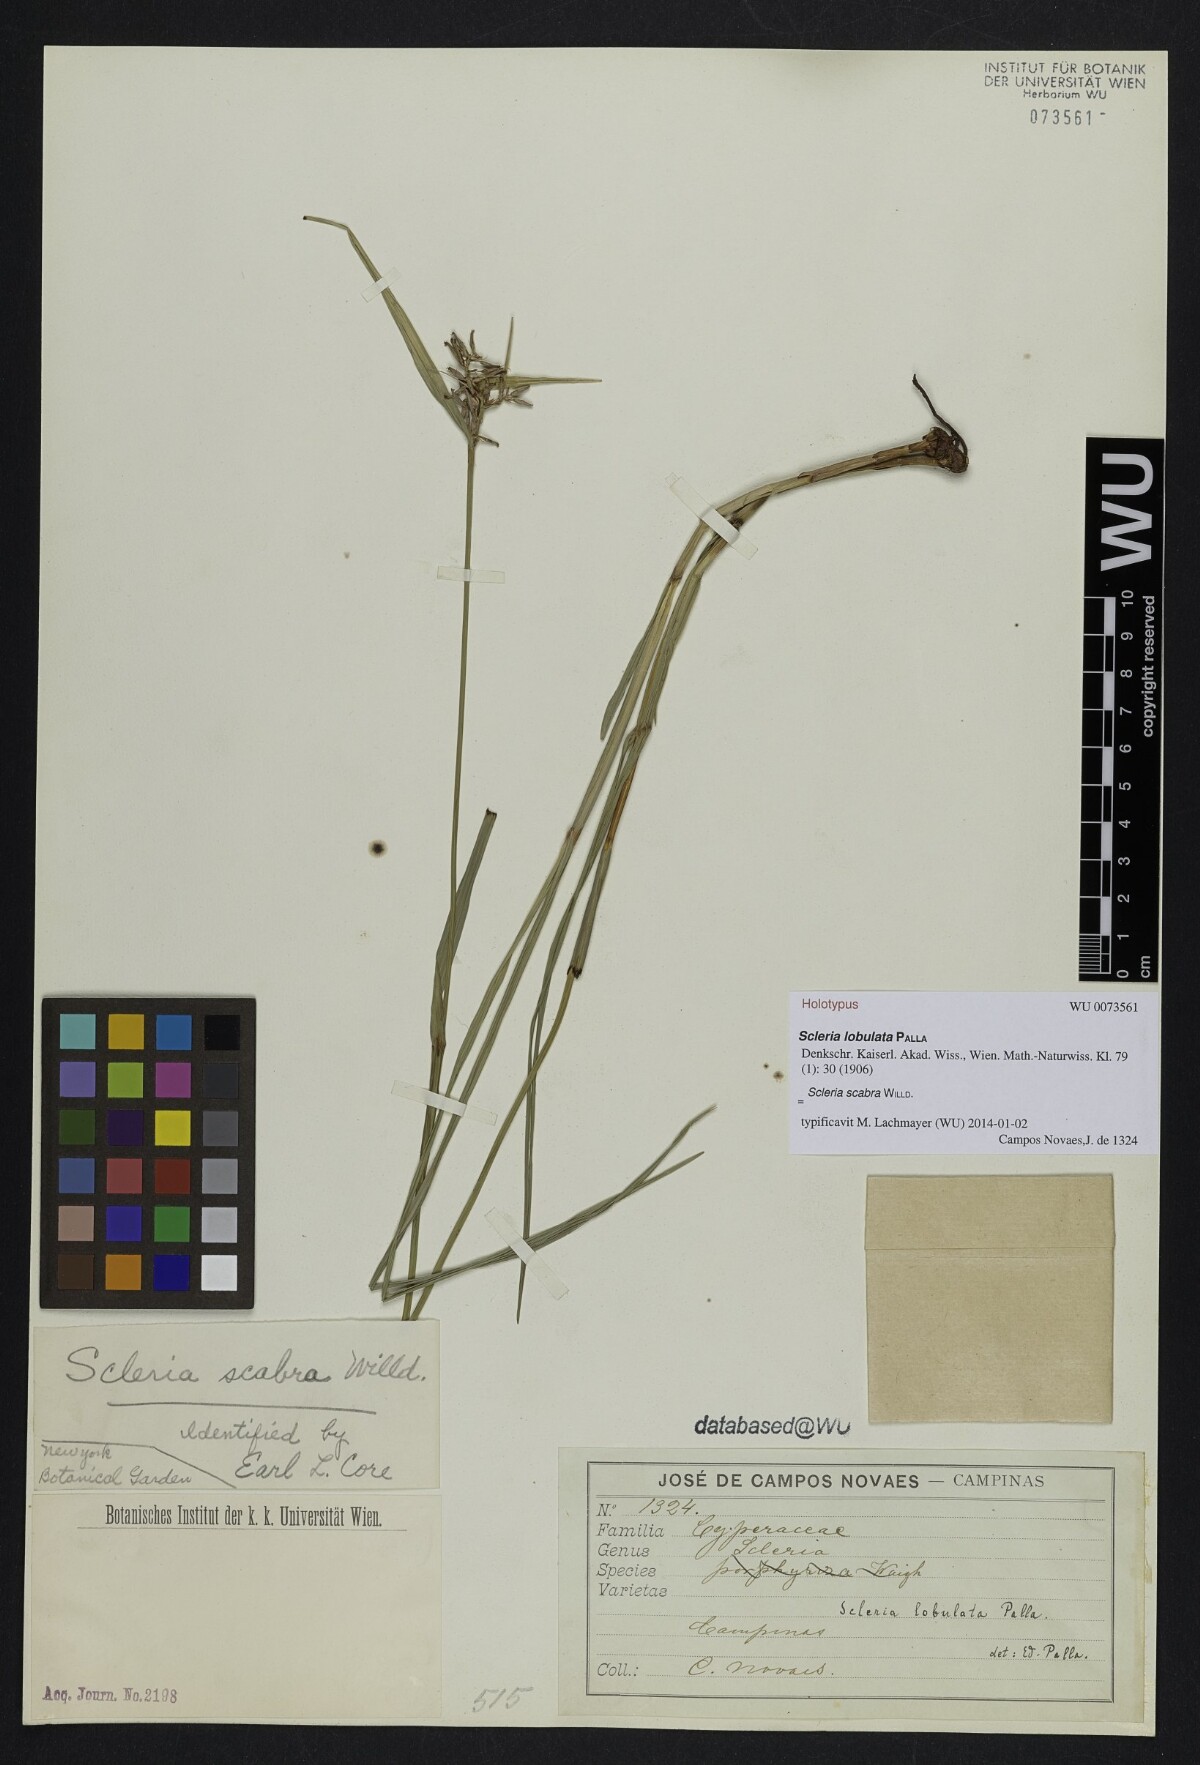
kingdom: Plantae
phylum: Tracheophyta
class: Liliopsida
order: Poales
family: Cyperaceae
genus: Scleria
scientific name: Scleria scabra
